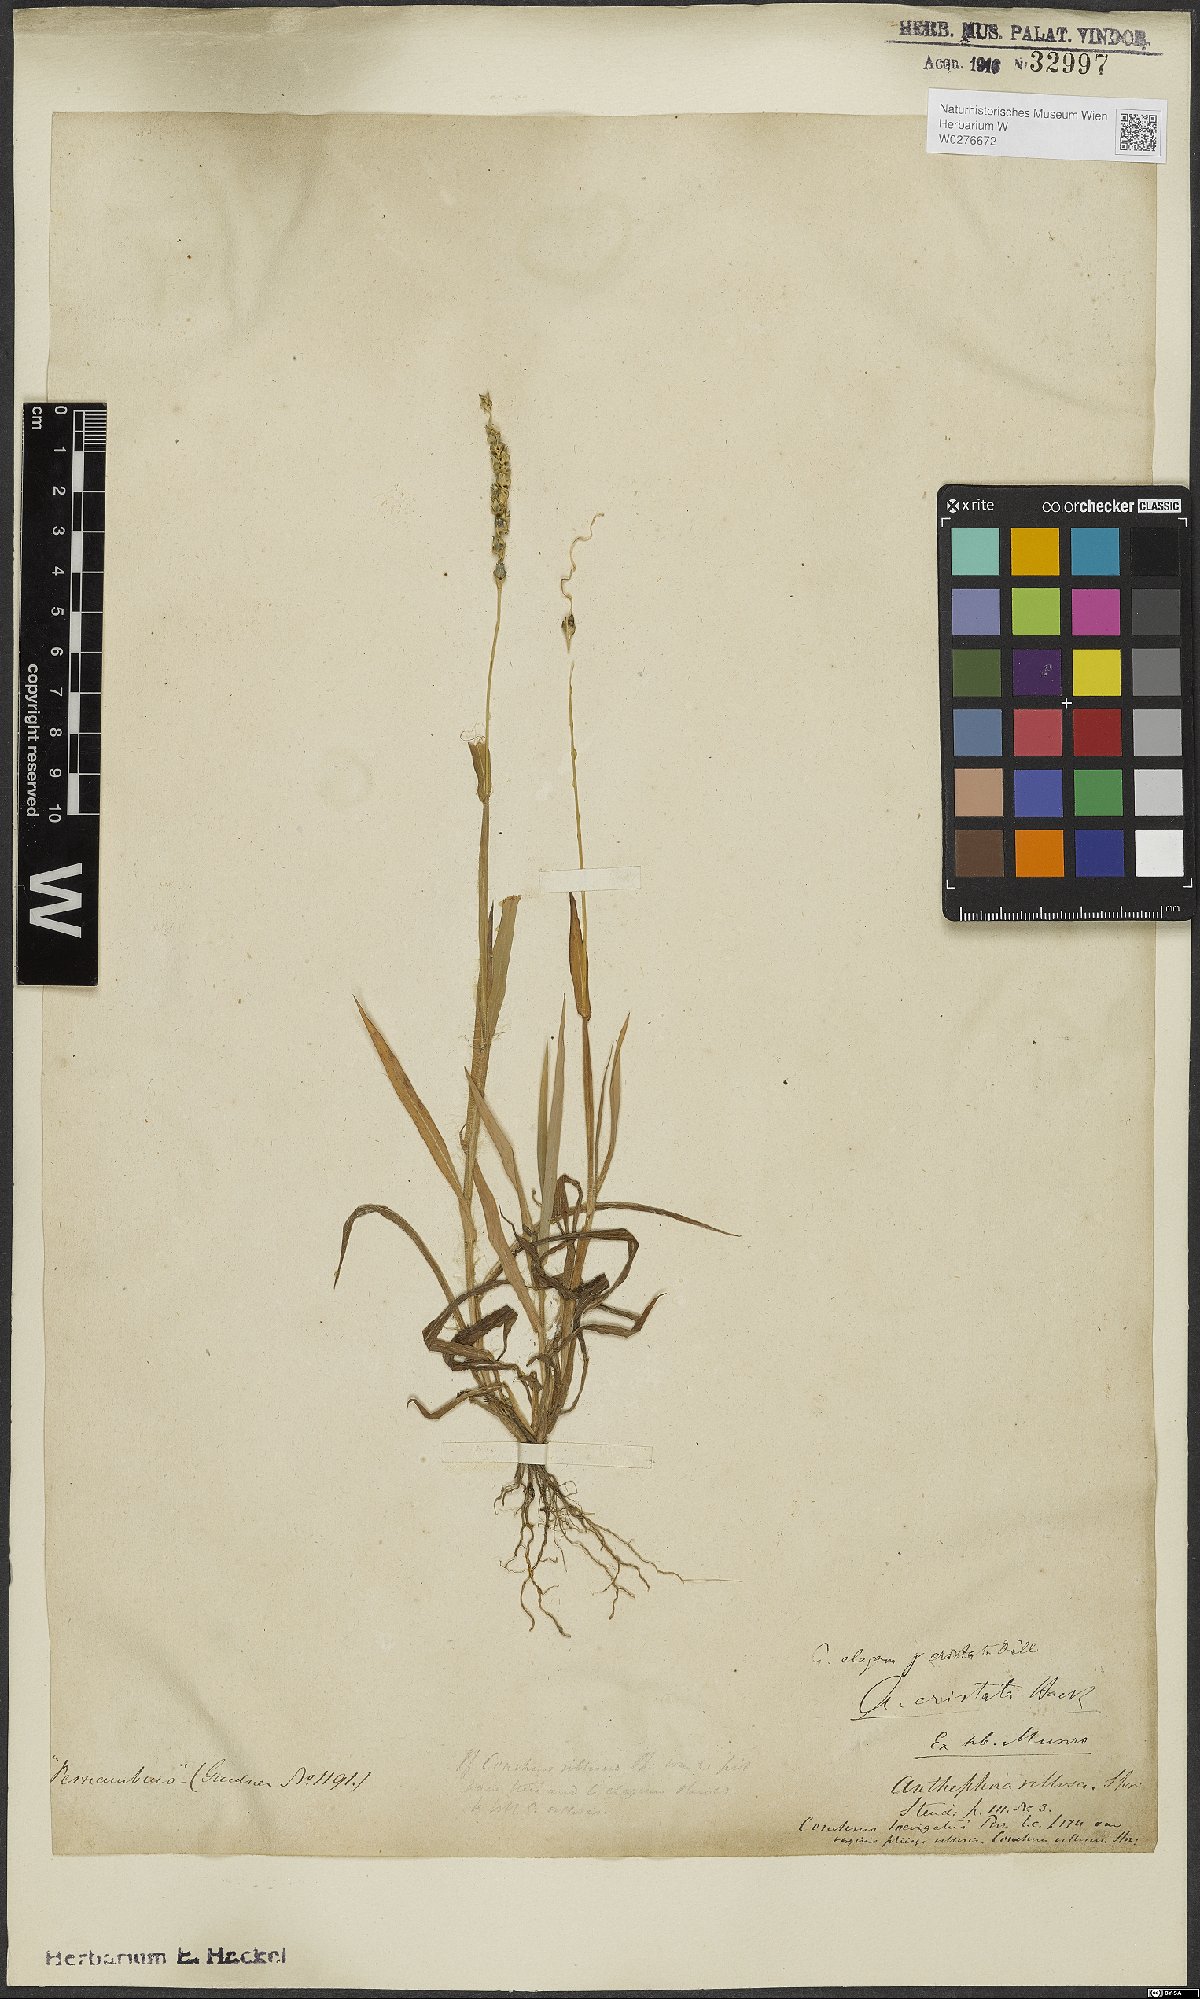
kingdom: Plantae
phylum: Tracheophyta
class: Liliopsida
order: Poales
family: Poaceae
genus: Anthephora
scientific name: Anthephora cristata
